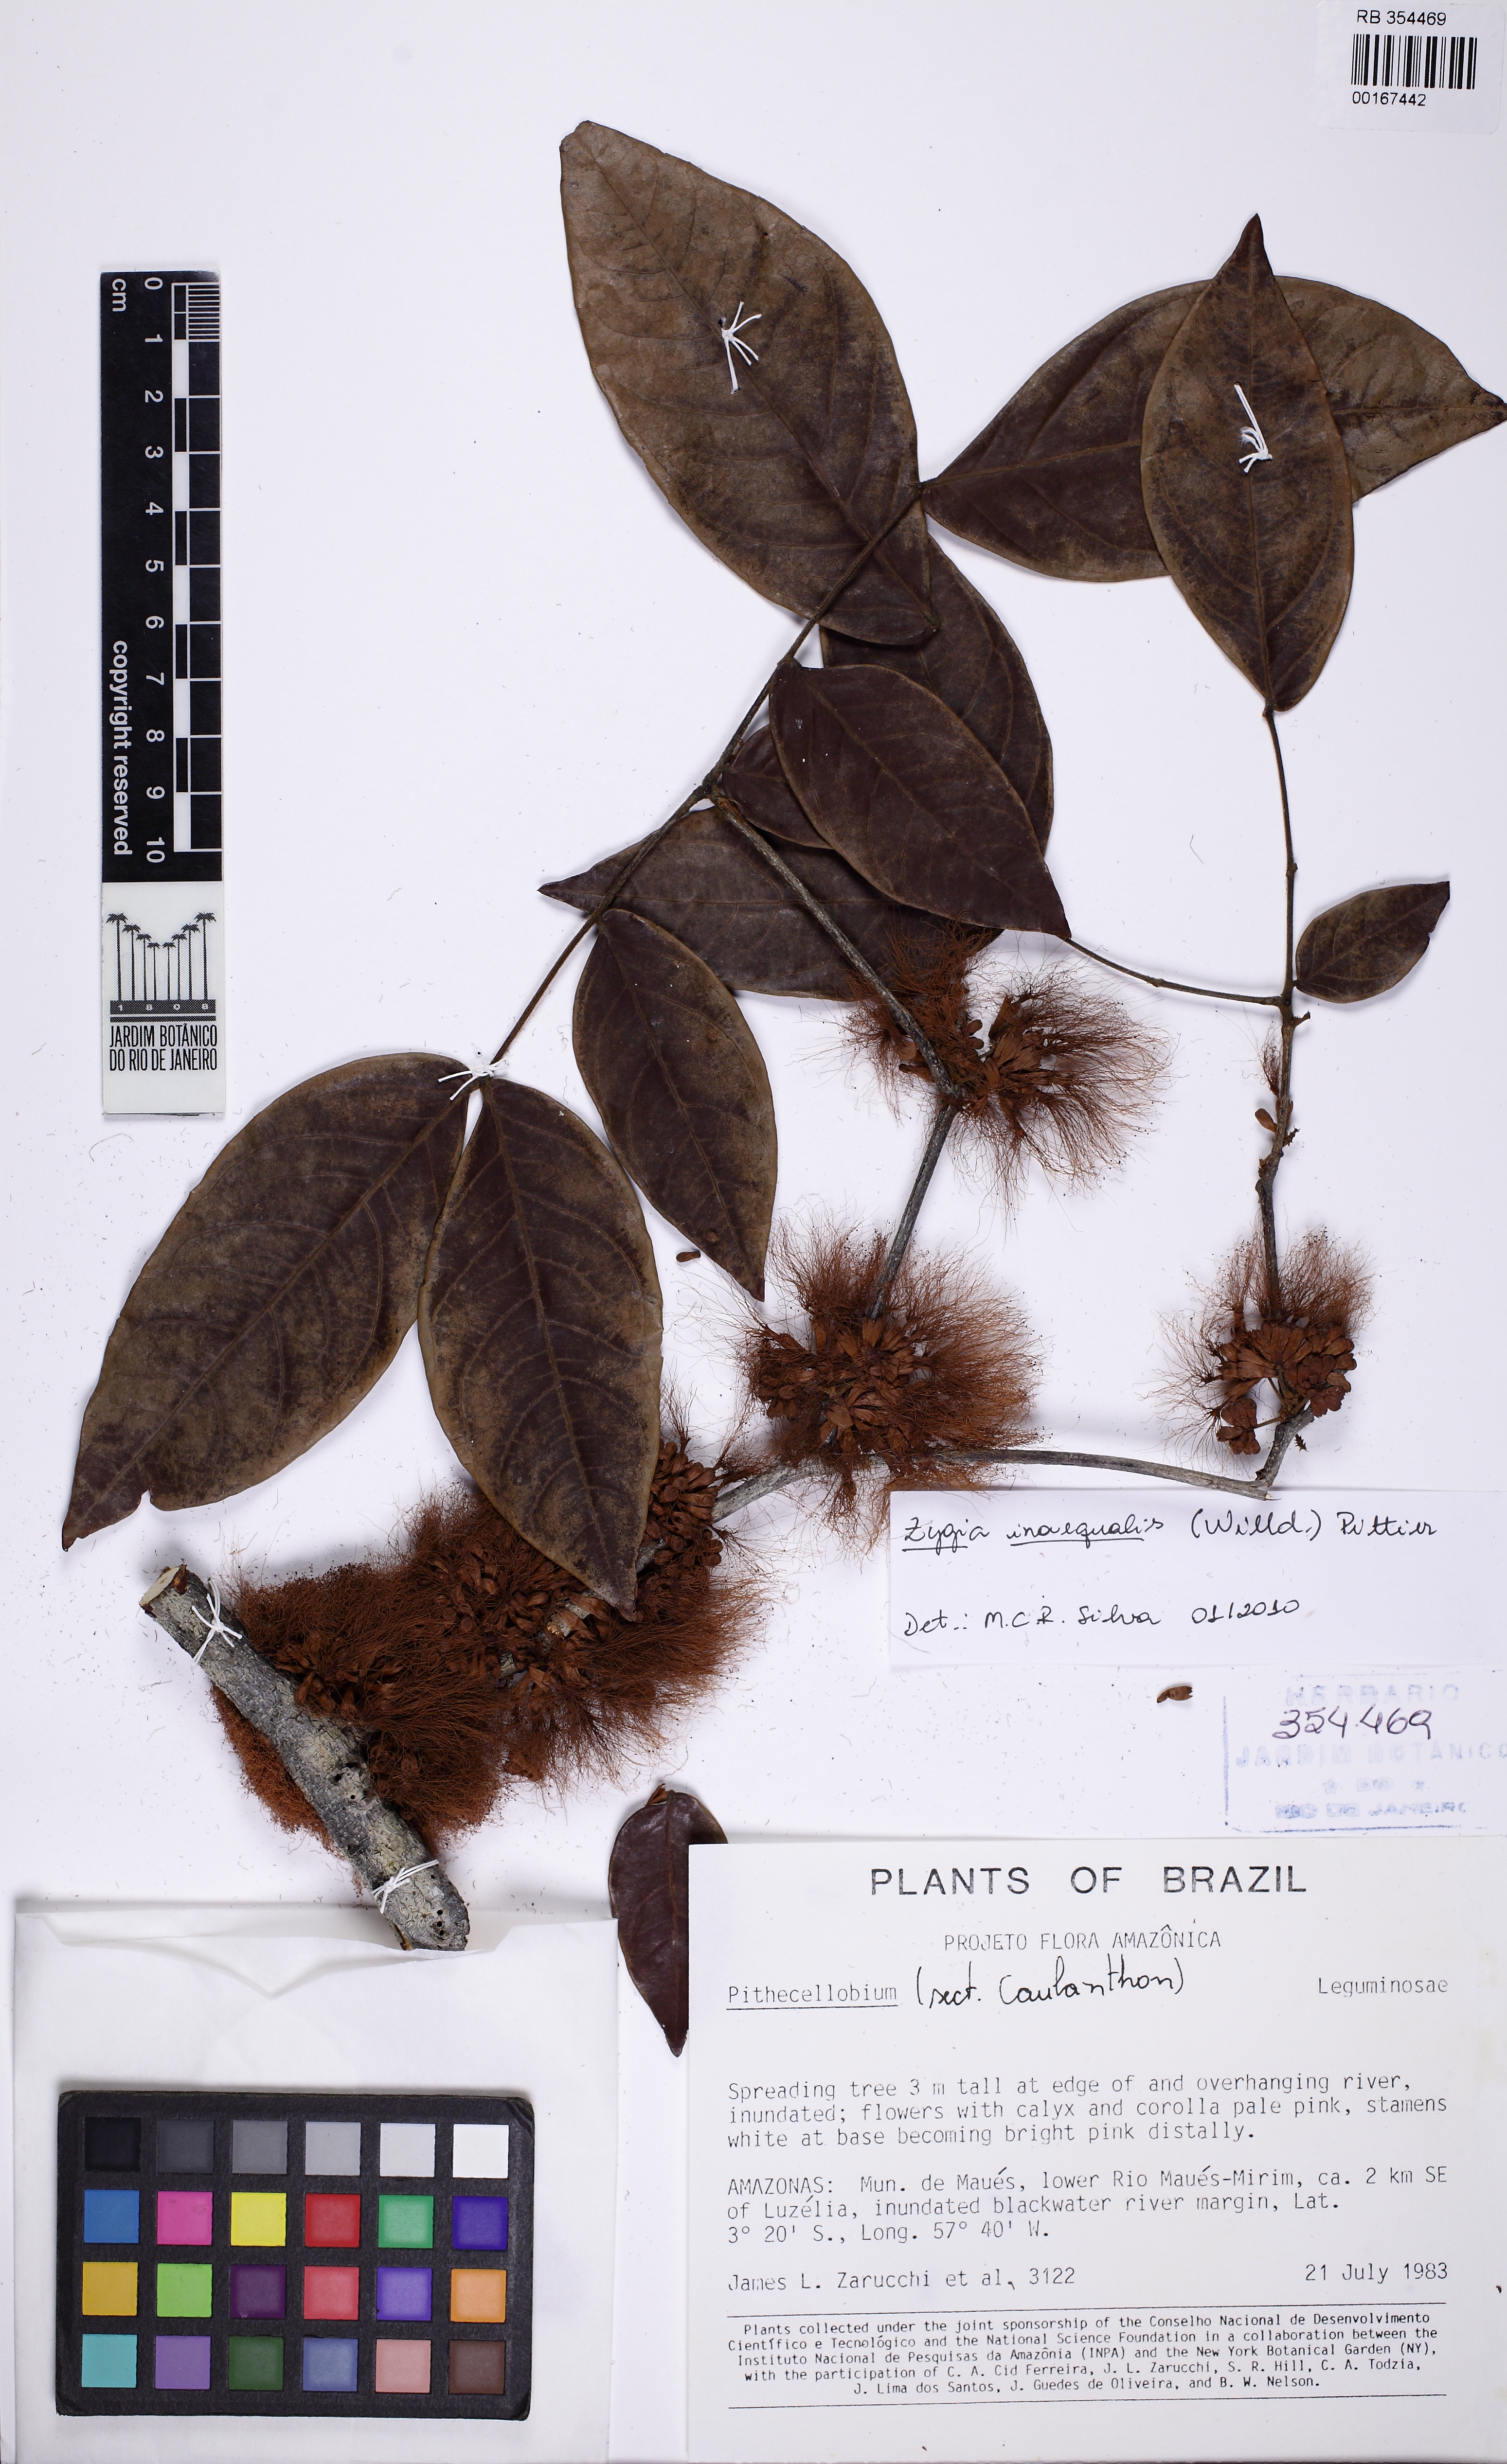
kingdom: Plantae
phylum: Tracheophyta
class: Magnoliopsida
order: Fabales
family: Fabaceae
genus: Zygia
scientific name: Zygia inaequalis
